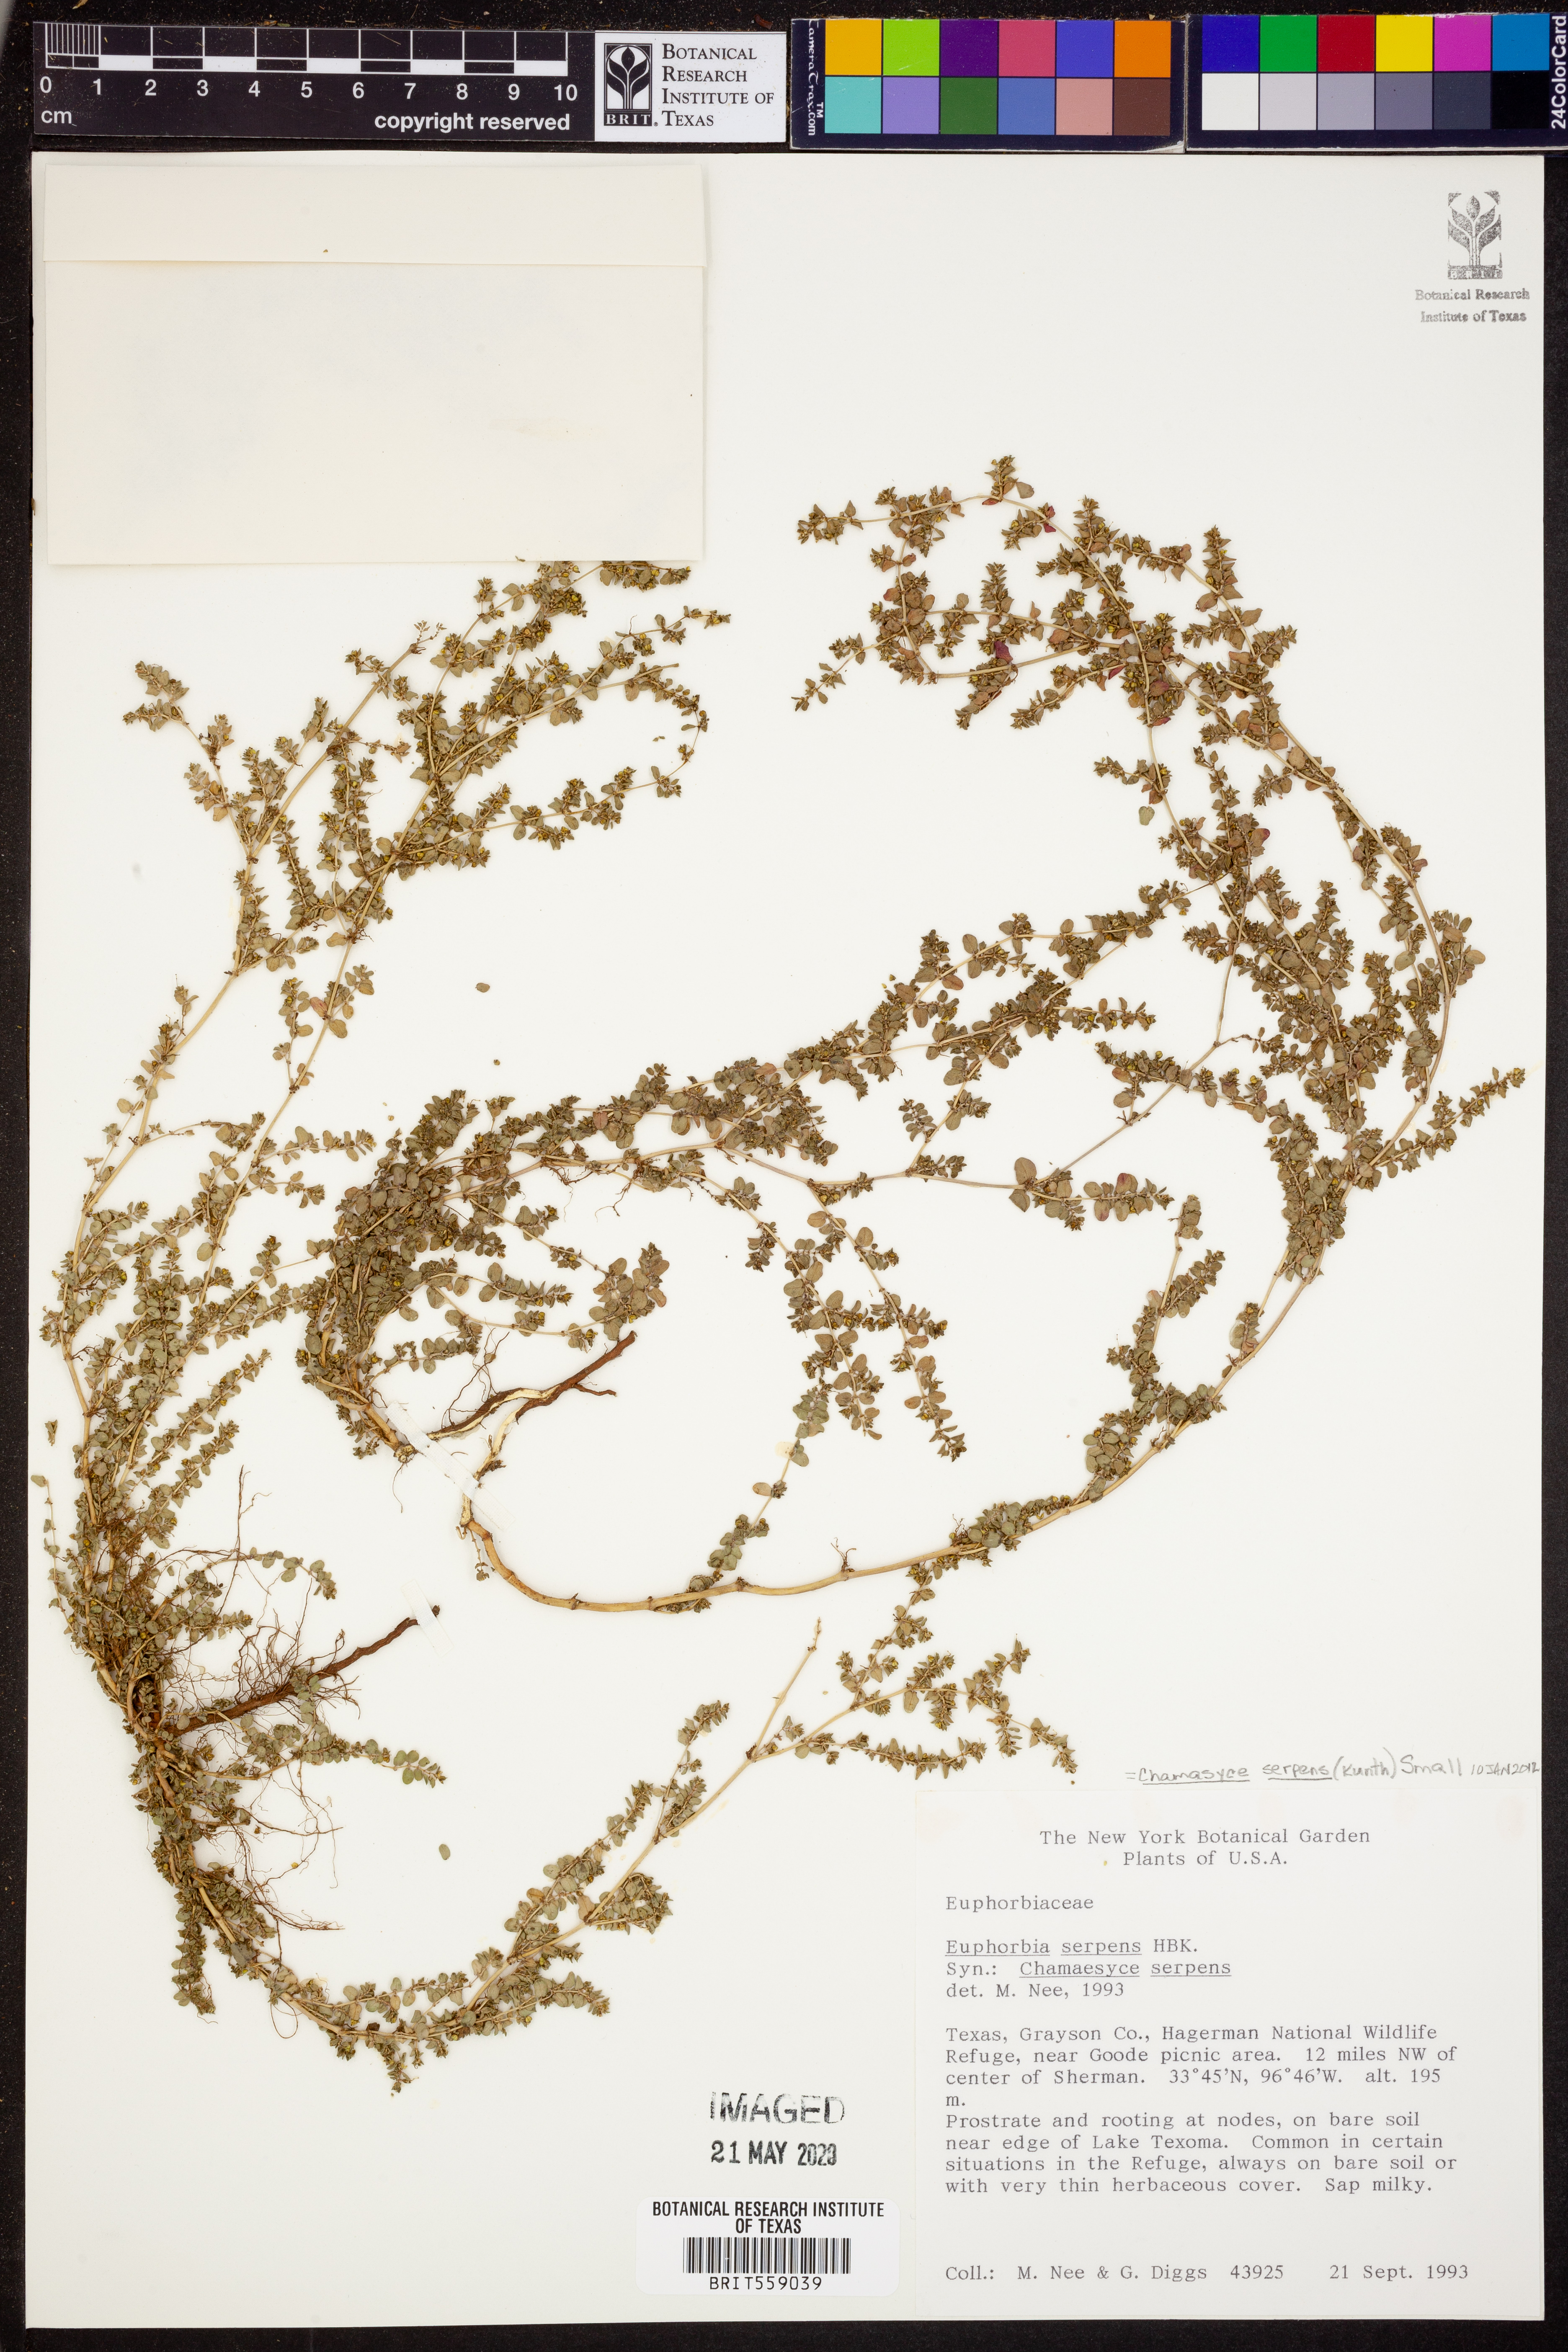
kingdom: Plantae
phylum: Tracheophyta
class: Magnoliopsida
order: Malpighiales
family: Euphorbiaceae
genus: Euphorbia
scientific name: Euphorbia serpens
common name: Matted sandmat
